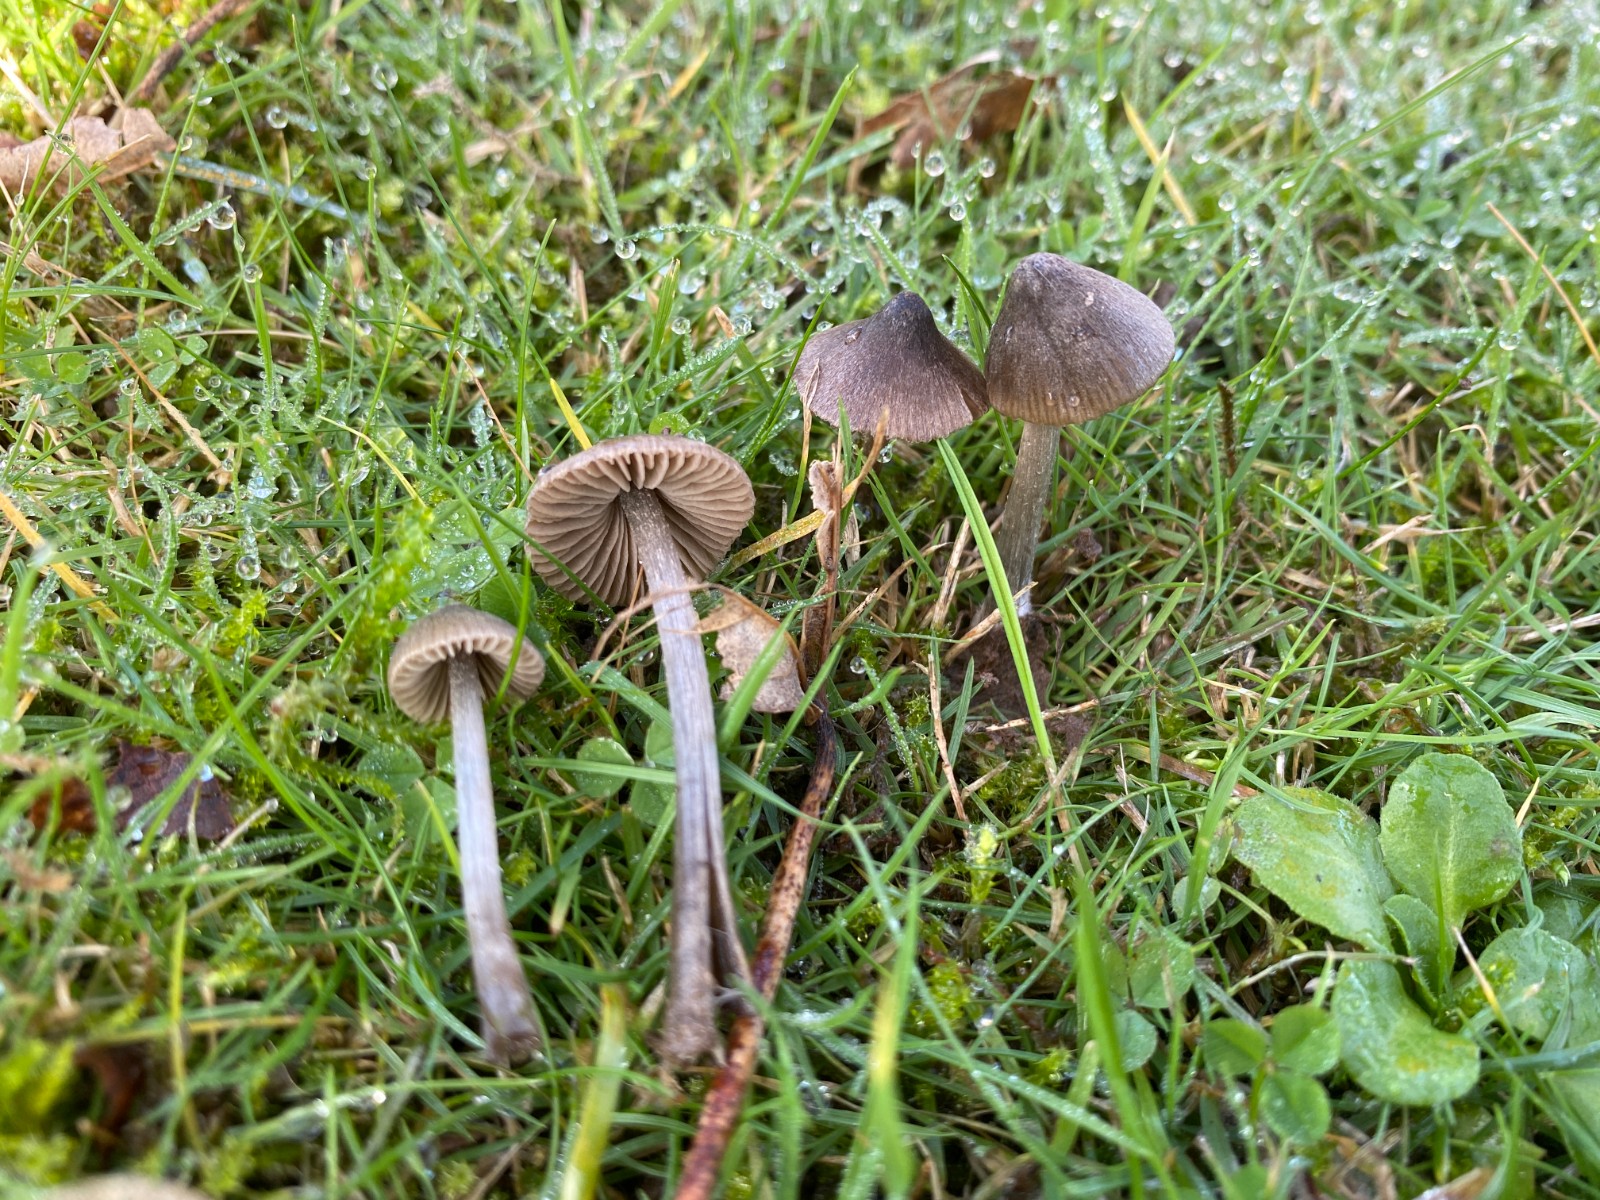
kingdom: Fungi
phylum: Basidiomycota
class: Agaricomycetes
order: Agaricales
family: Entolomataceae
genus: Entoloma
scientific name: Entoloma araneosum
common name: spindelvævs-rødblad
